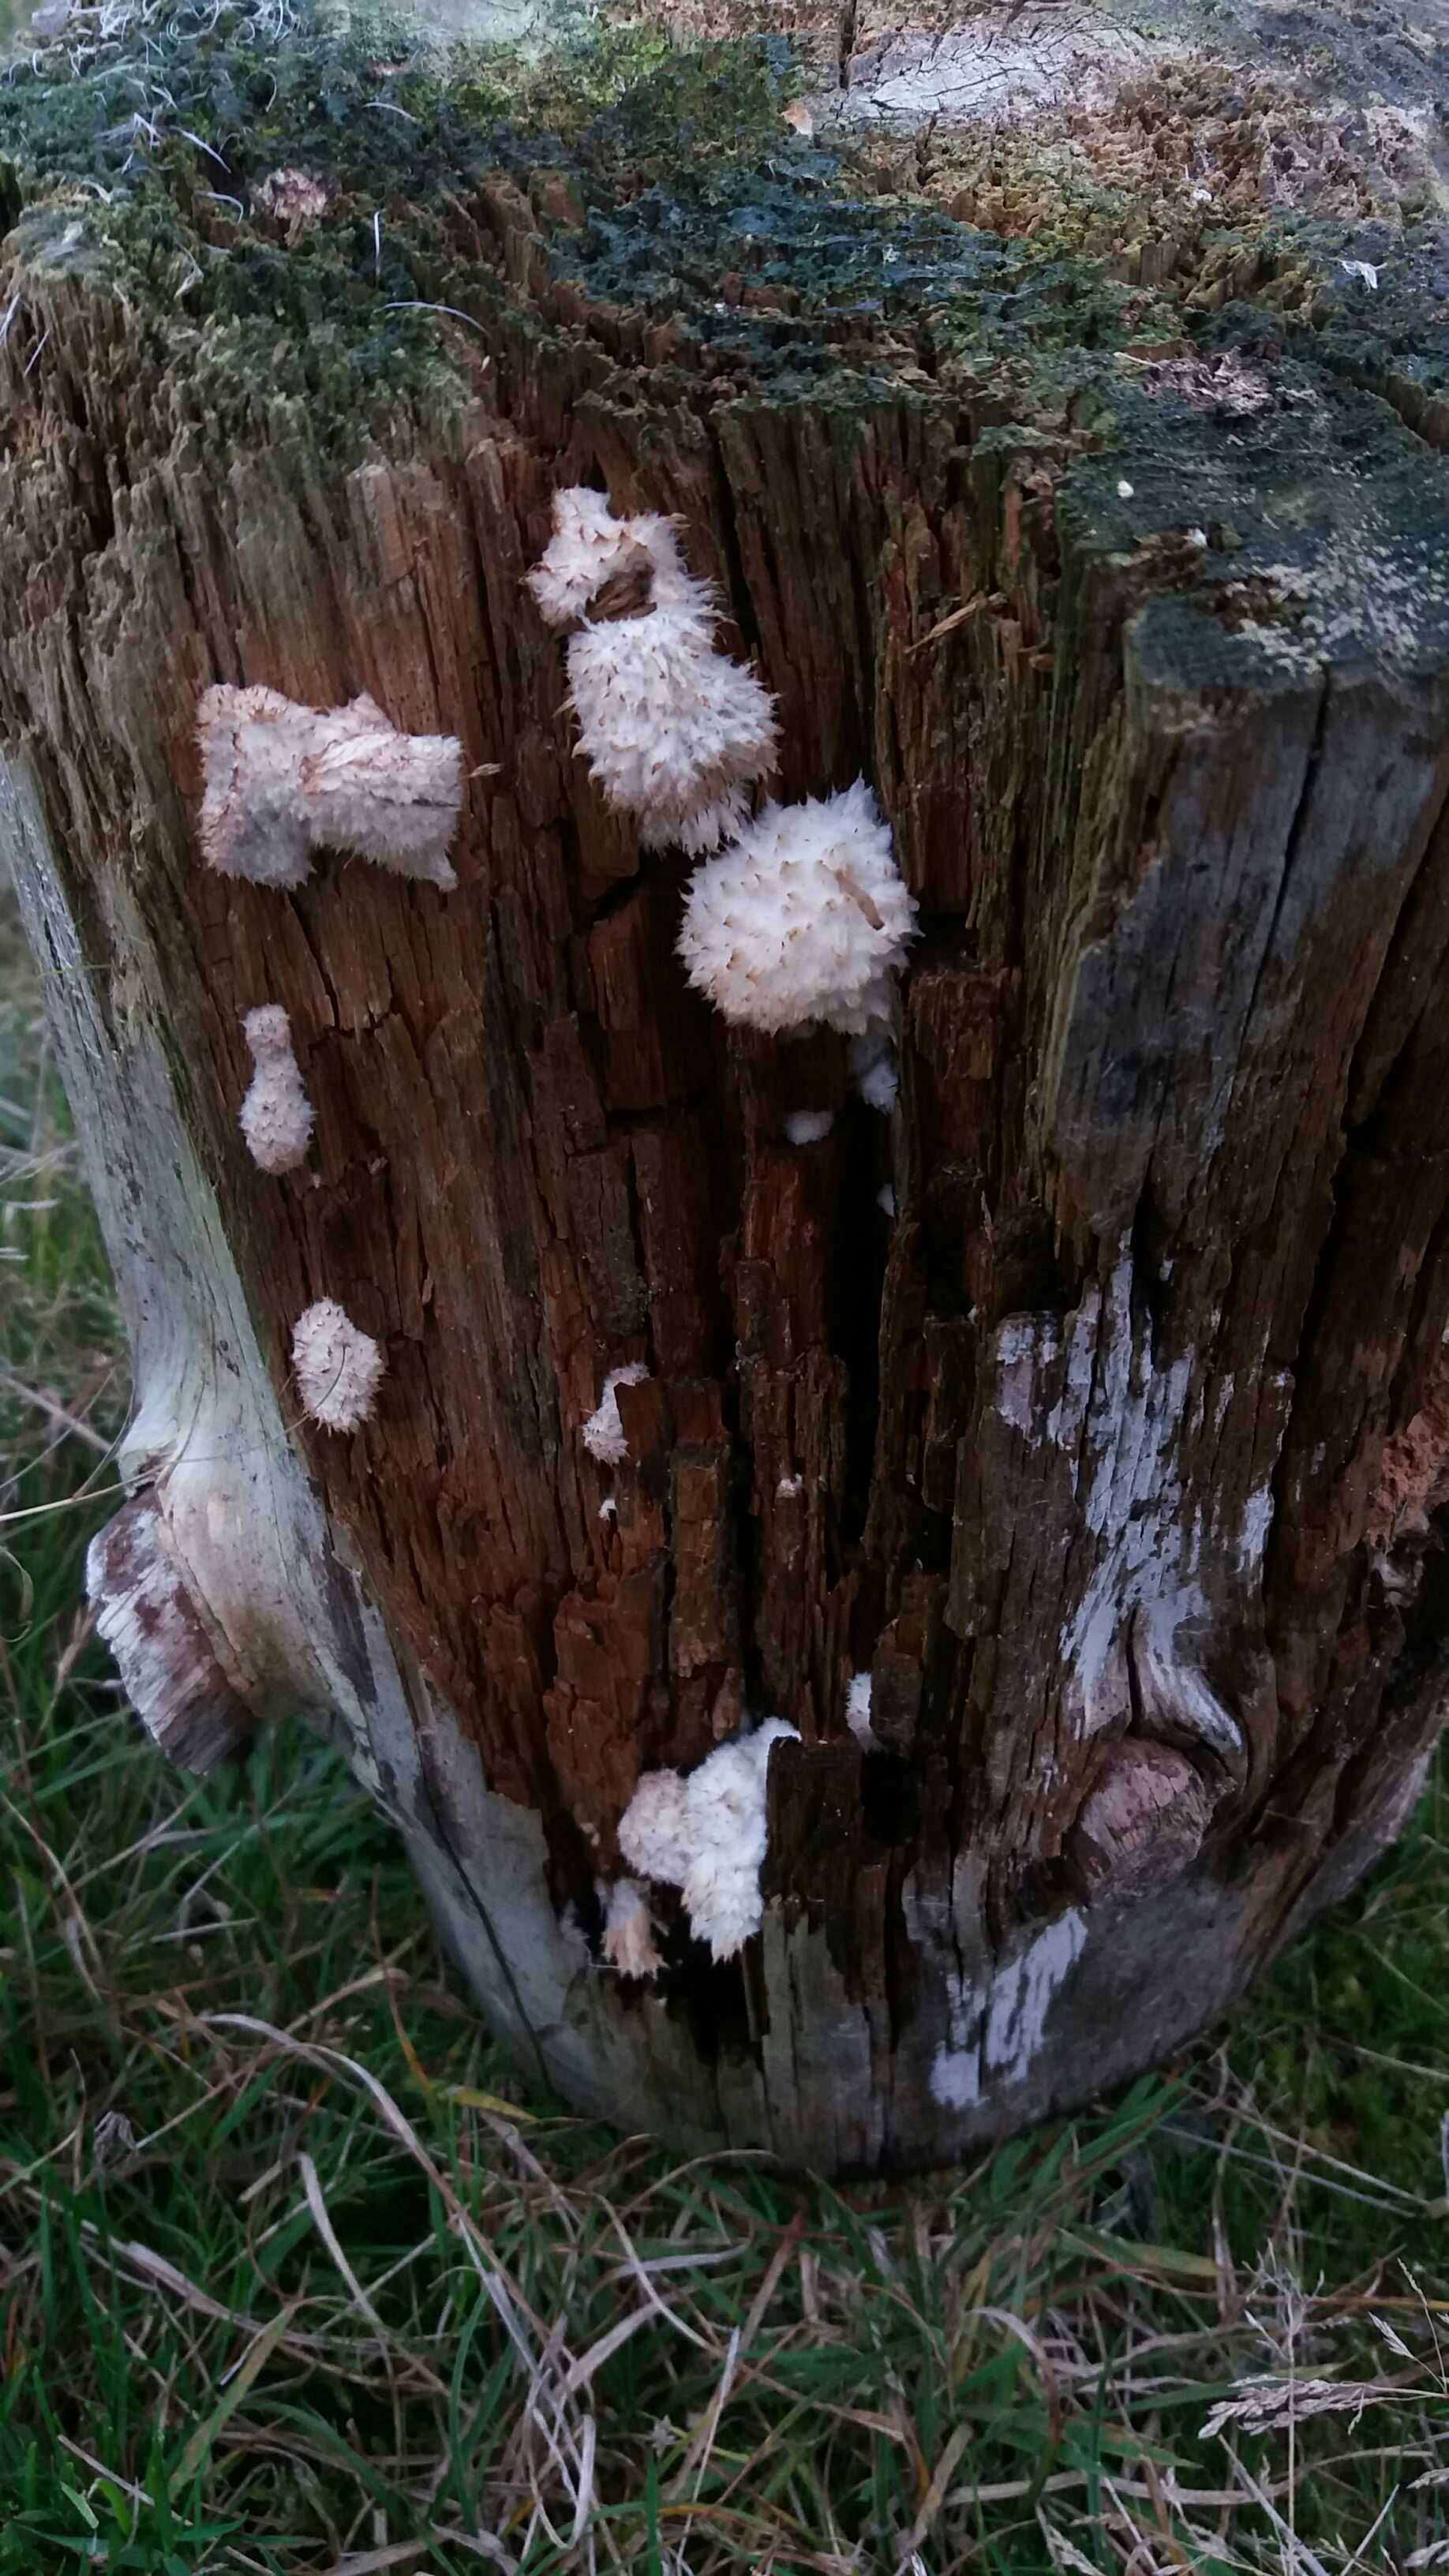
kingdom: Fungi
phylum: Basidiomycota
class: Agaricomycetes
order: Polyporales
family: Dacryobolaceae
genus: Postia
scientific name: Postia ptychogaster
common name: støvende kødporesvamp
